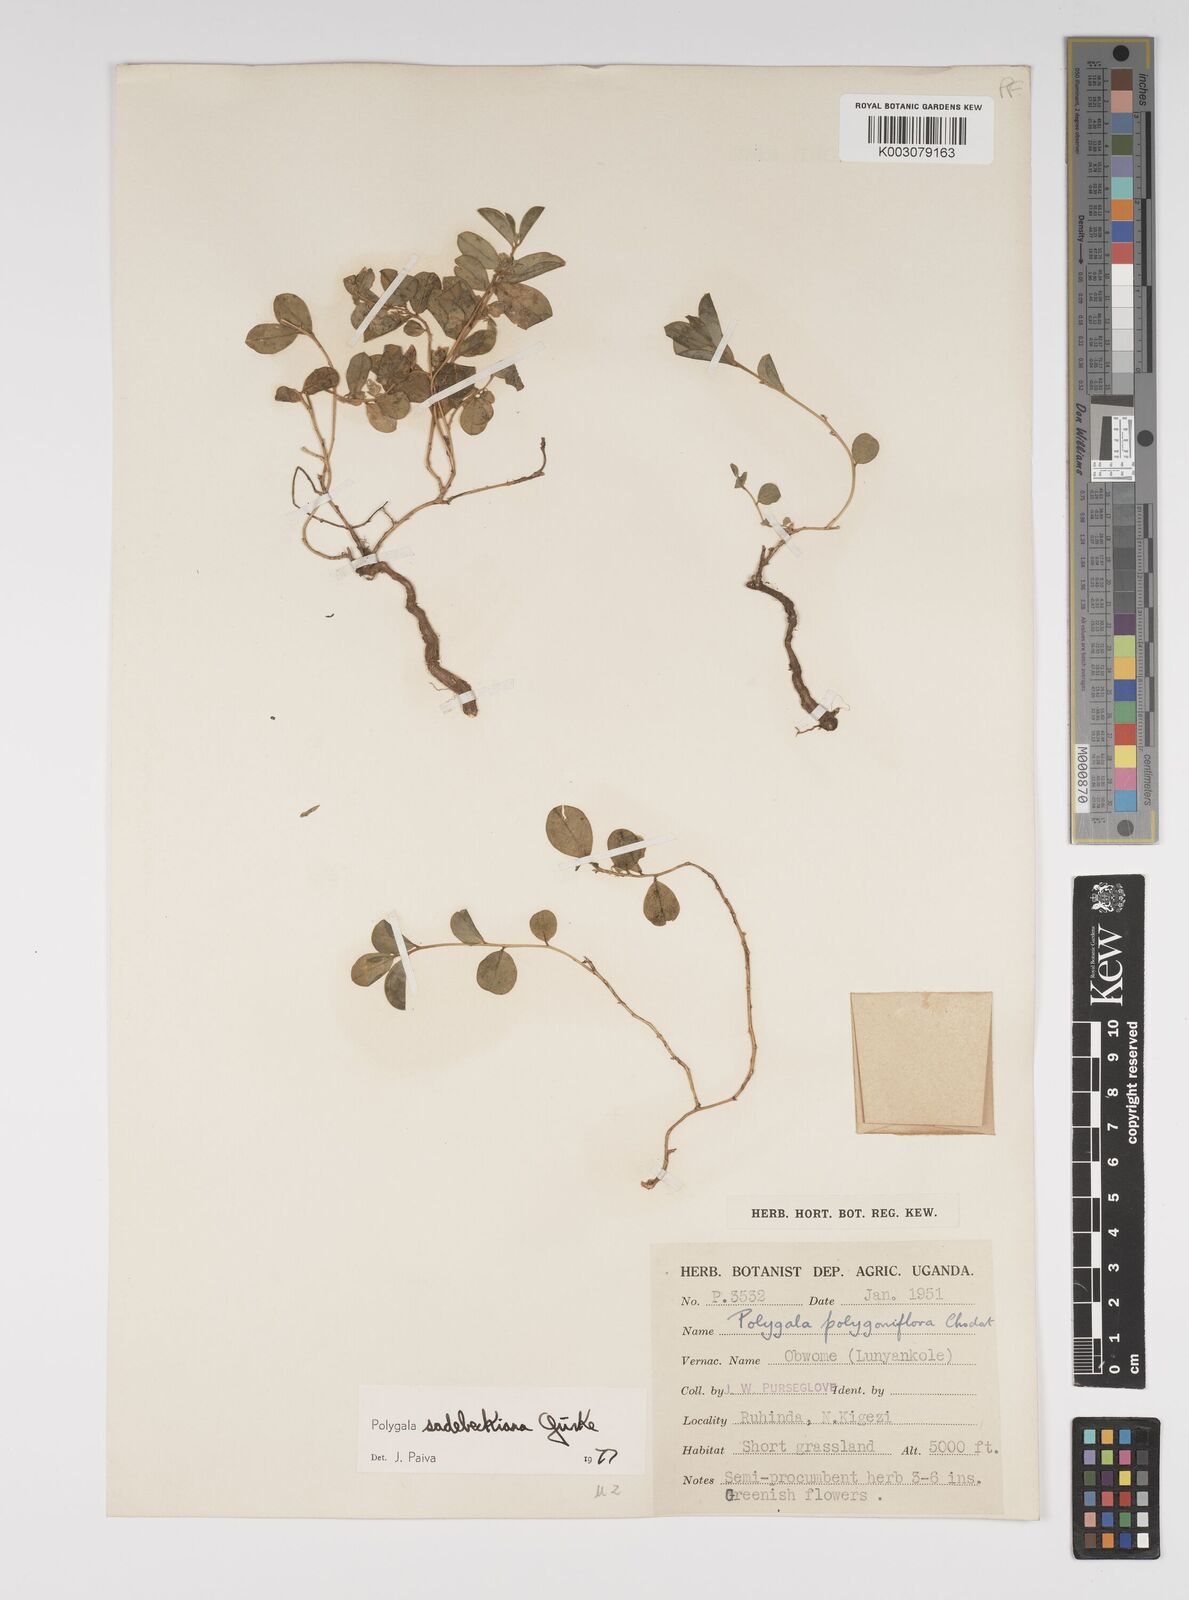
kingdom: Plantae
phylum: Tracheophyta
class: Magnoliopsida
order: Fabales
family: Polygalaceae
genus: Polygala
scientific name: Polygala sadebeckiana
